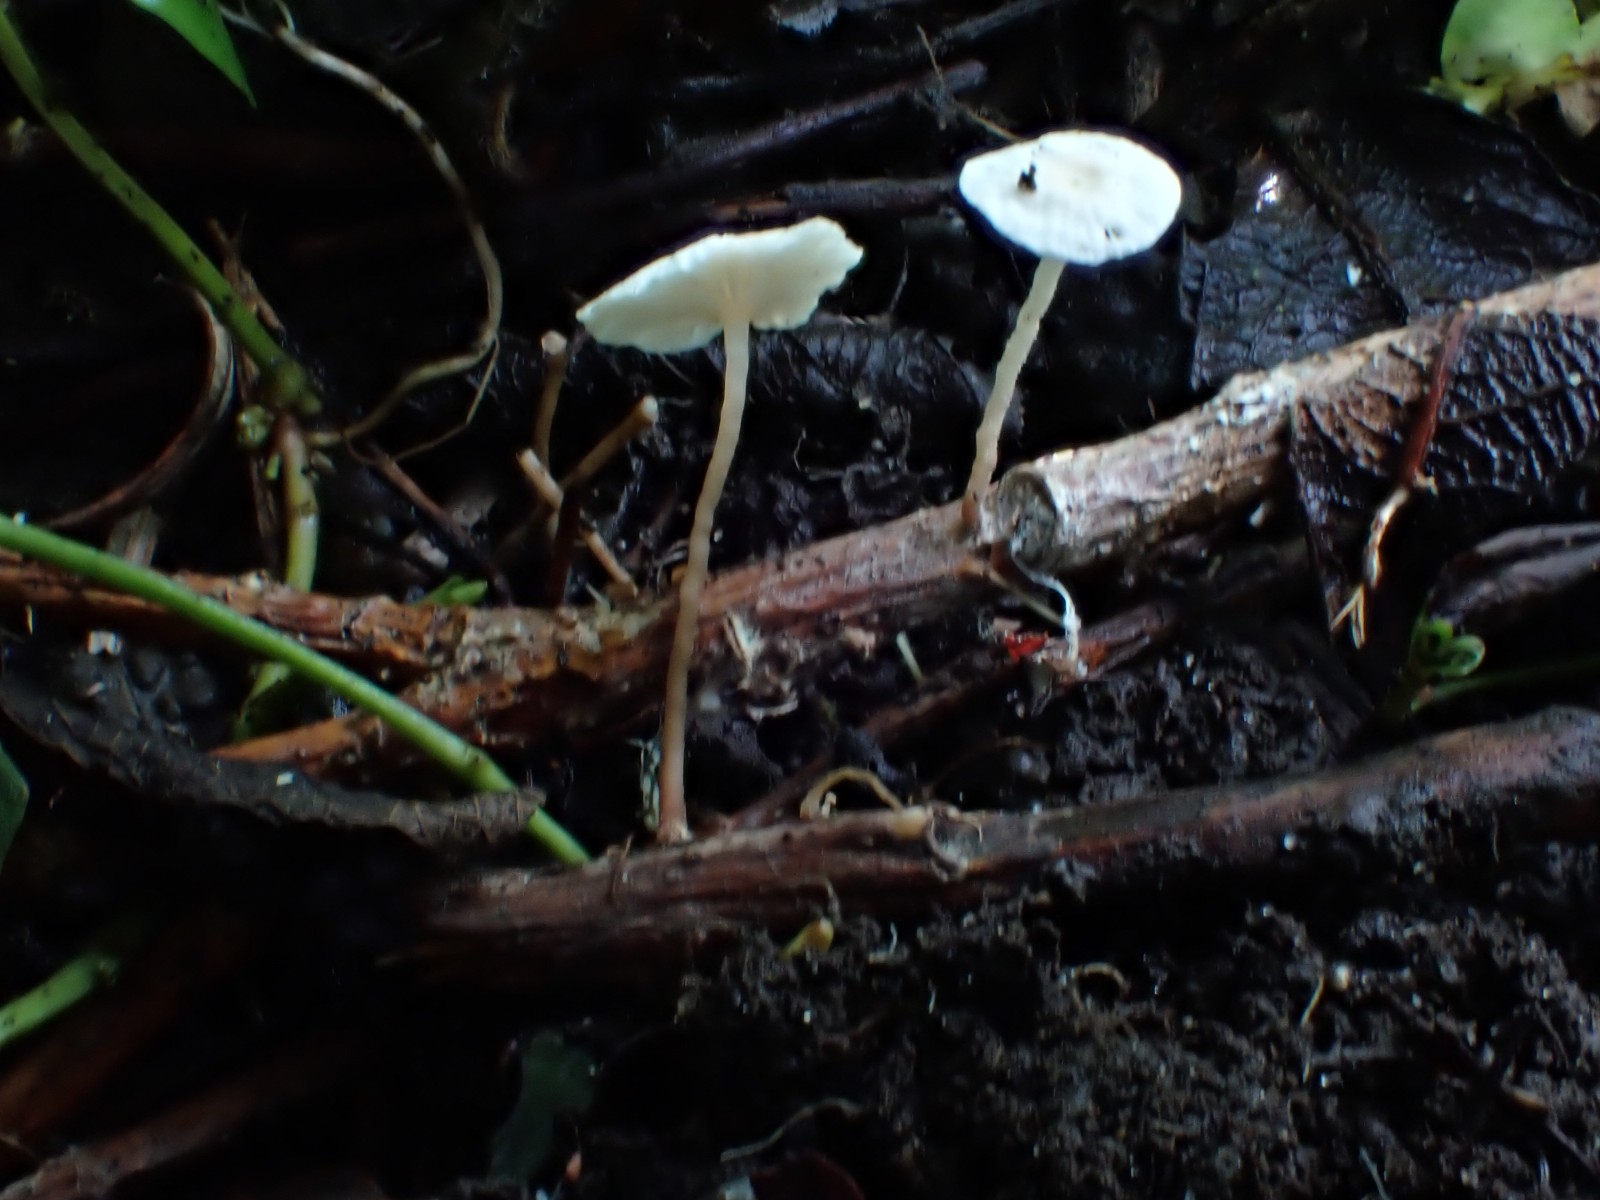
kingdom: Fungi
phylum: Basidiomycota
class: Agaricomycetes
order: Agaricales
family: Omphalotaceae
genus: Collybiopsis
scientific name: Collybiopsis vaillantii
